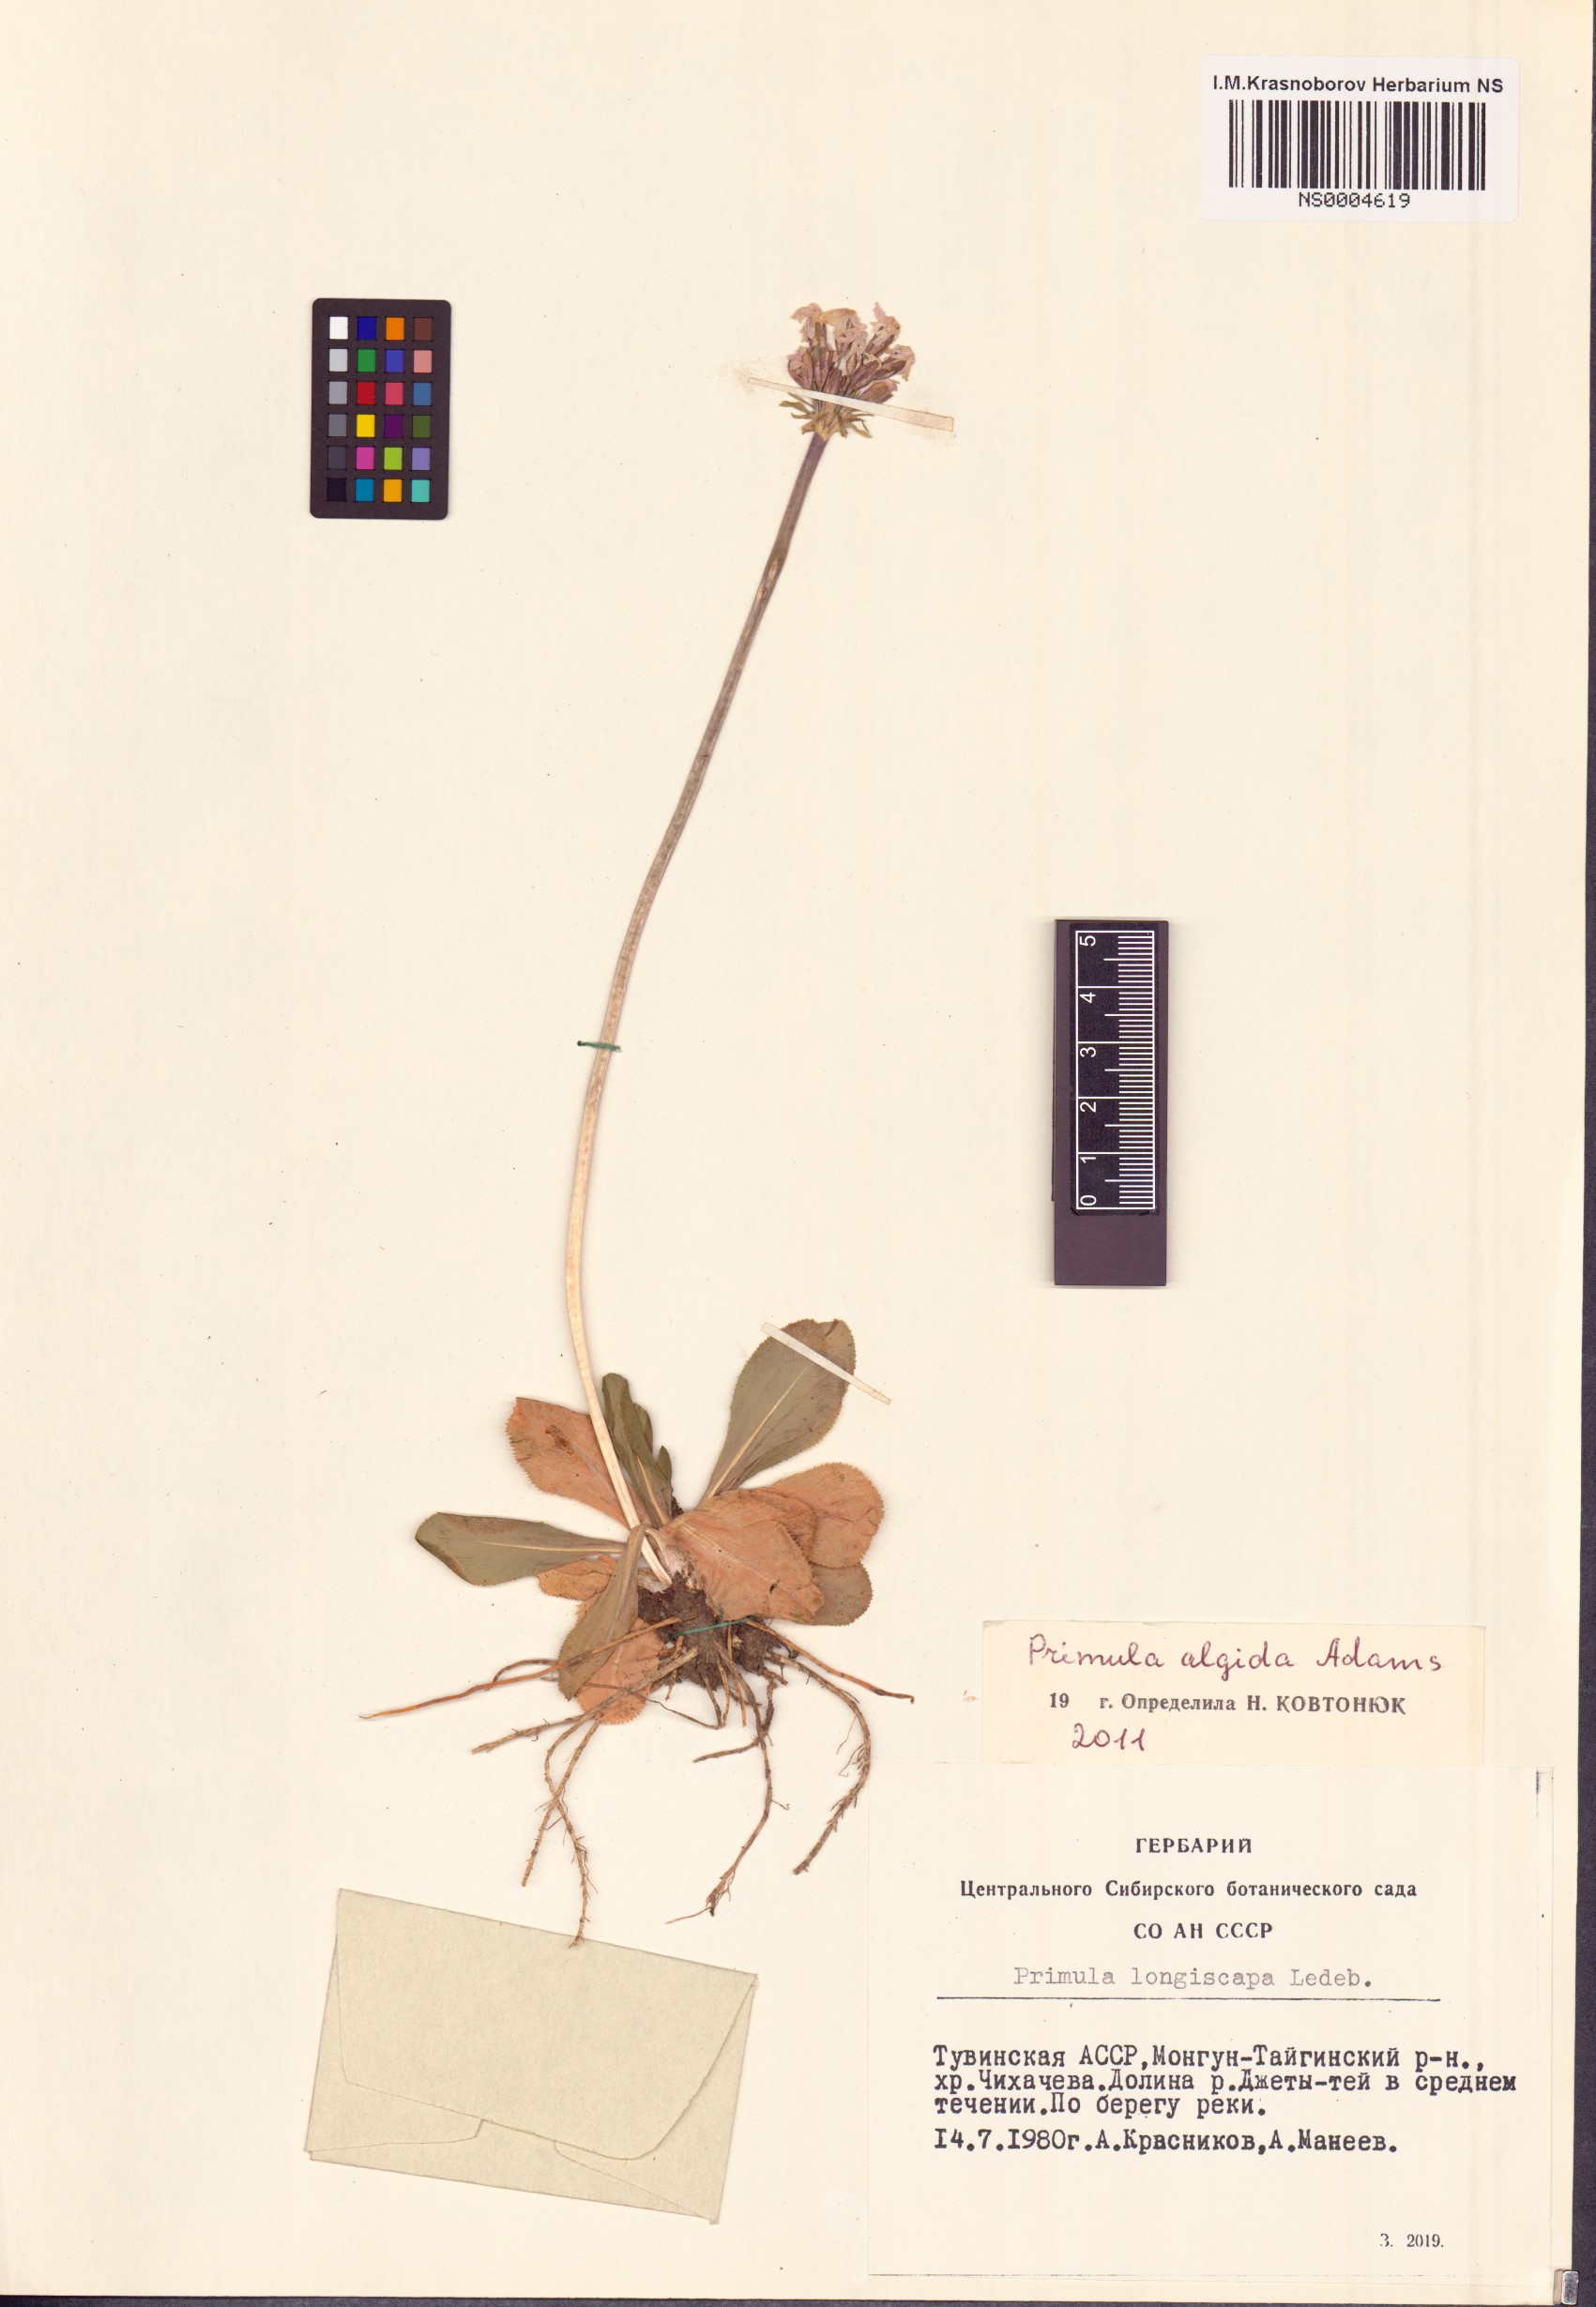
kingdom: Plantae
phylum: Tracheophyta
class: Magnoliopsida
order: Ericales
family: Primulaceae
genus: Primula
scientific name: Primula algida
